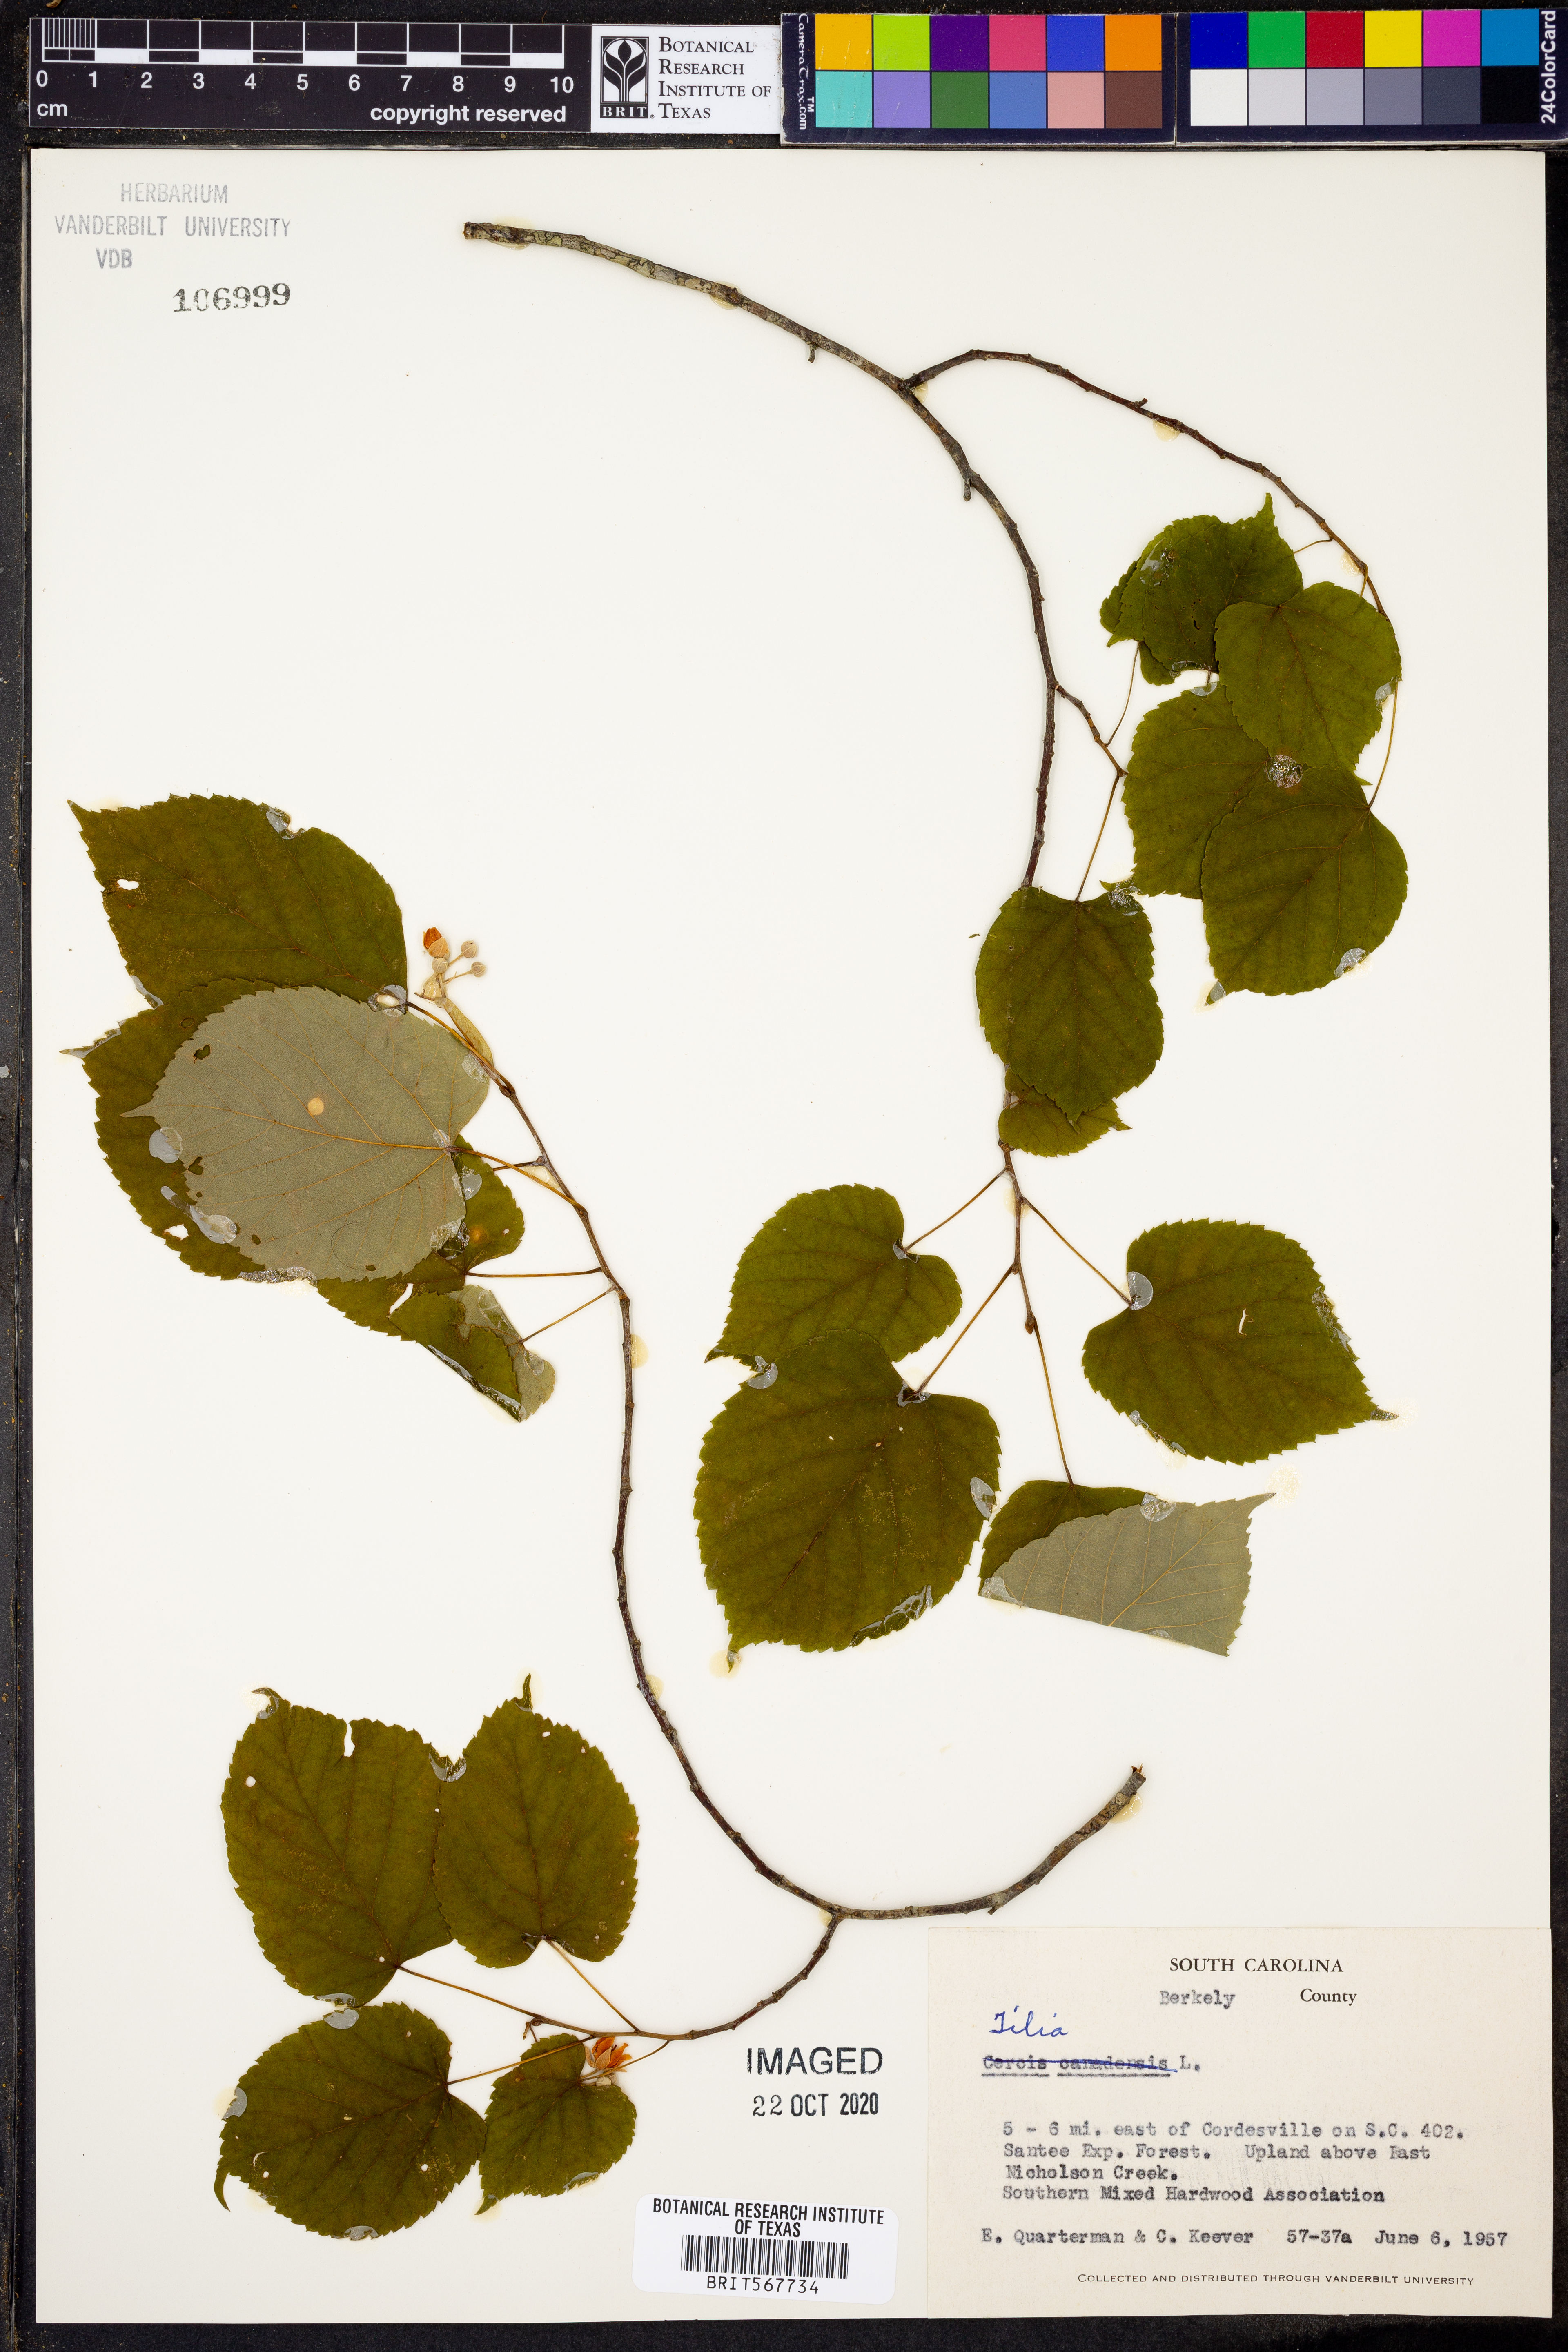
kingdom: Plantae
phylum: Tracheophyta
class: Magnoliopsida
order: Malvales
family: Malvaceae
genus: Tilia
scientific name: Tilia
